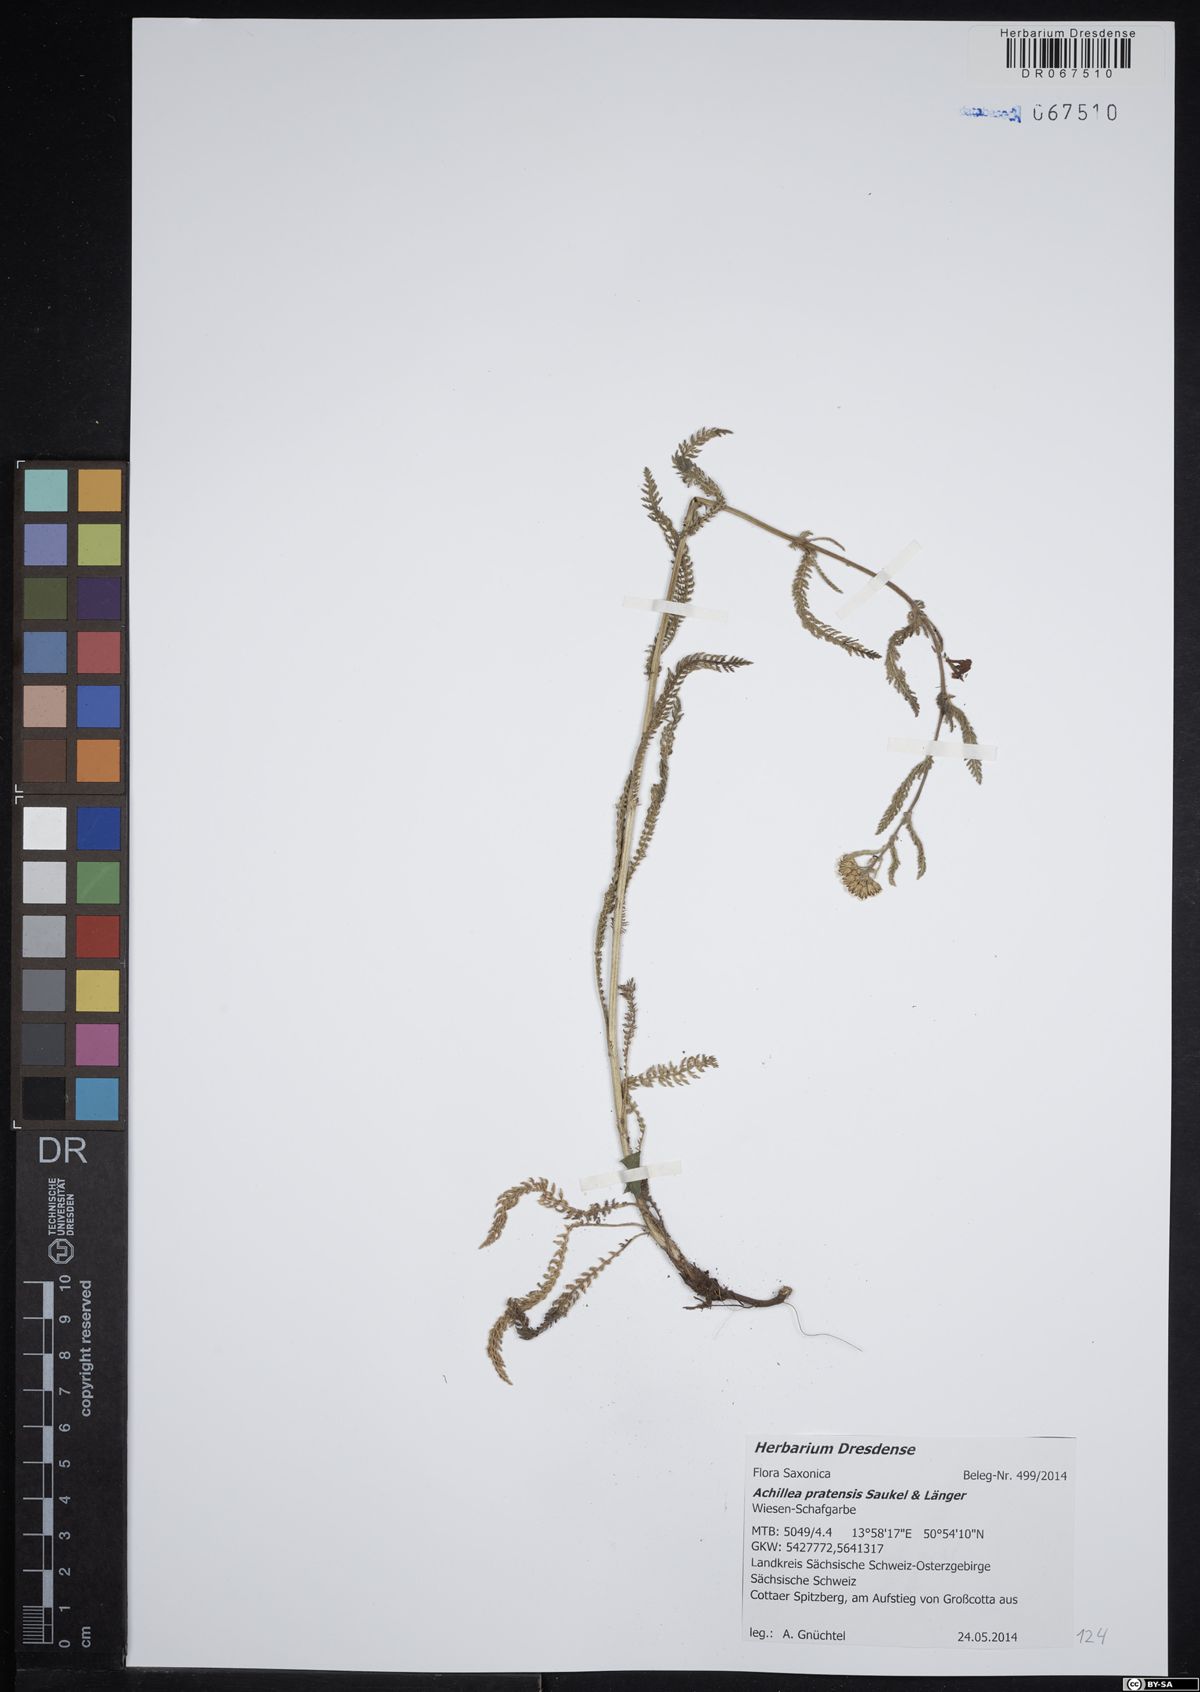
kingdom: Plantae
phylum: Tracheophyta
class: Magnoliopsida
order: Asterales
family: Asteraceae
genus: Achillea
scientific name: Achillea pratensis
